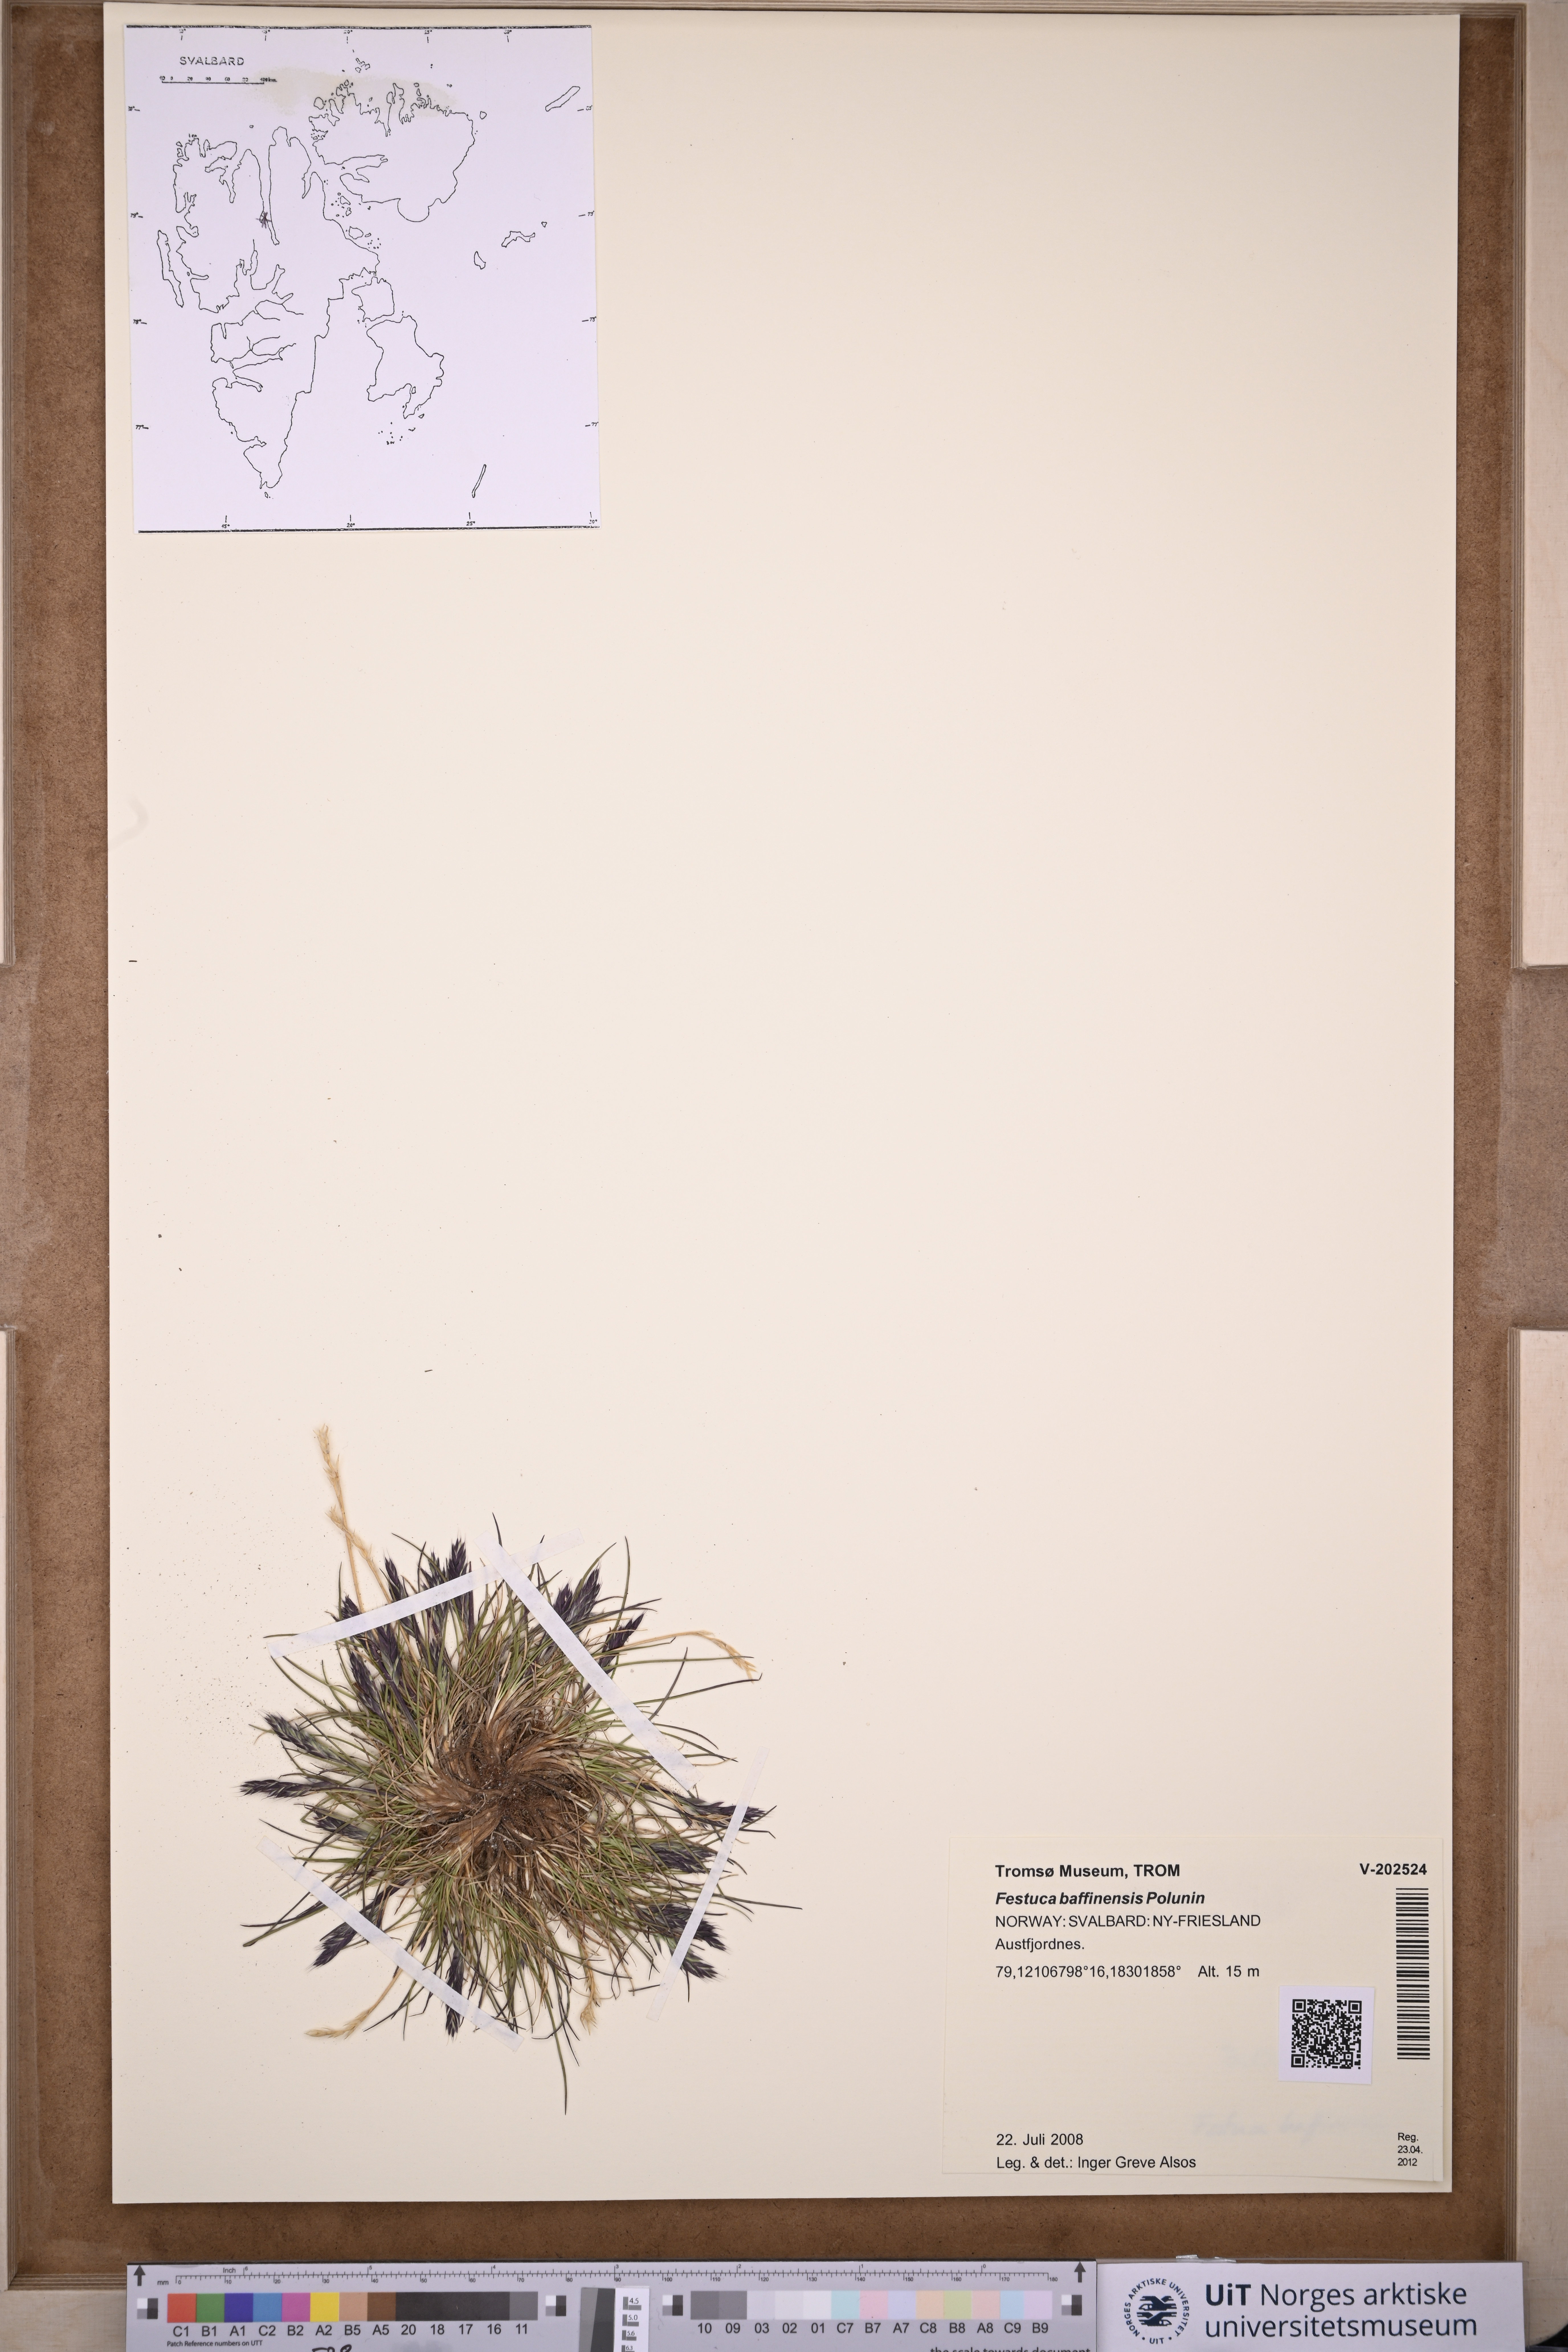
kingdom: Plantae
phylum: Tracheophyta
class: Liliopsida
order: Poales
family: Poaceae
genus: Festuca
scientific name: Festuca baffinensis
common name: Baffin island fescue
